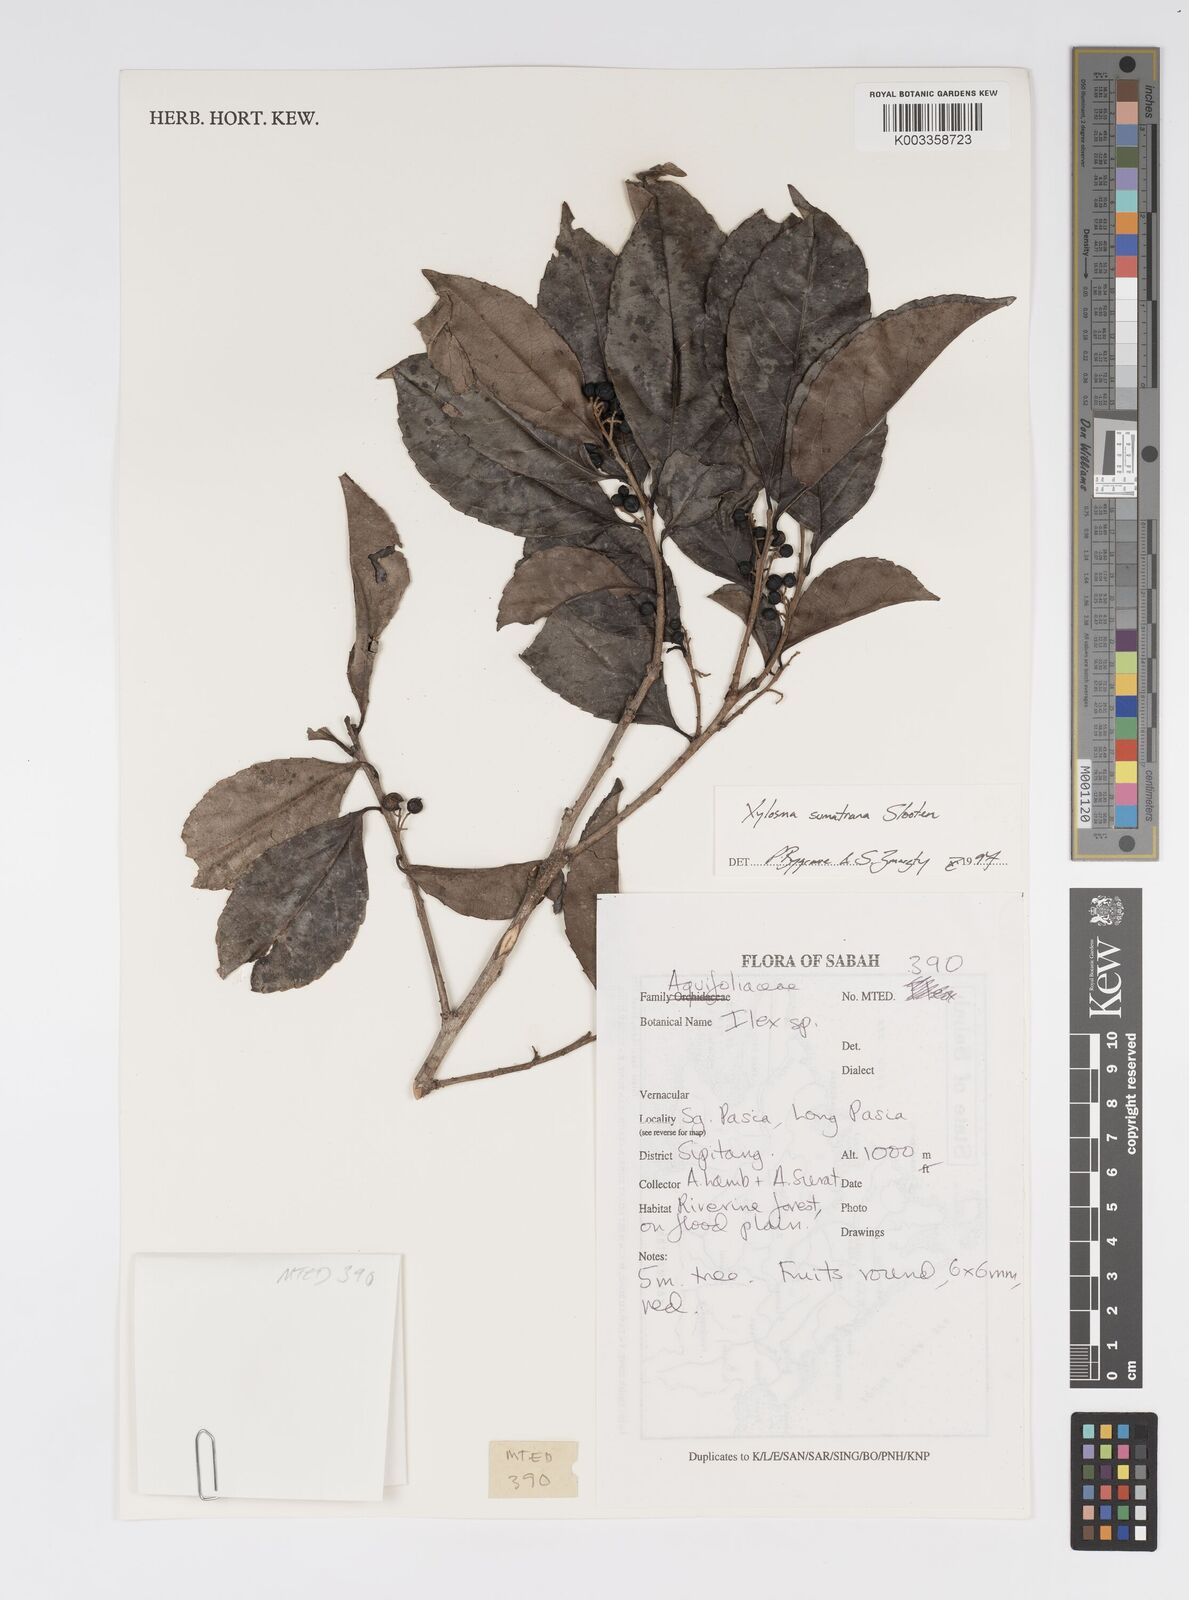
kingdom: Plantae
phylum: Tracheophyta
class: Magnoliopsida
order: Malpighiales
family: Salicaceae
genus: Xylosma
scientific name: Xylosma sumatrana
